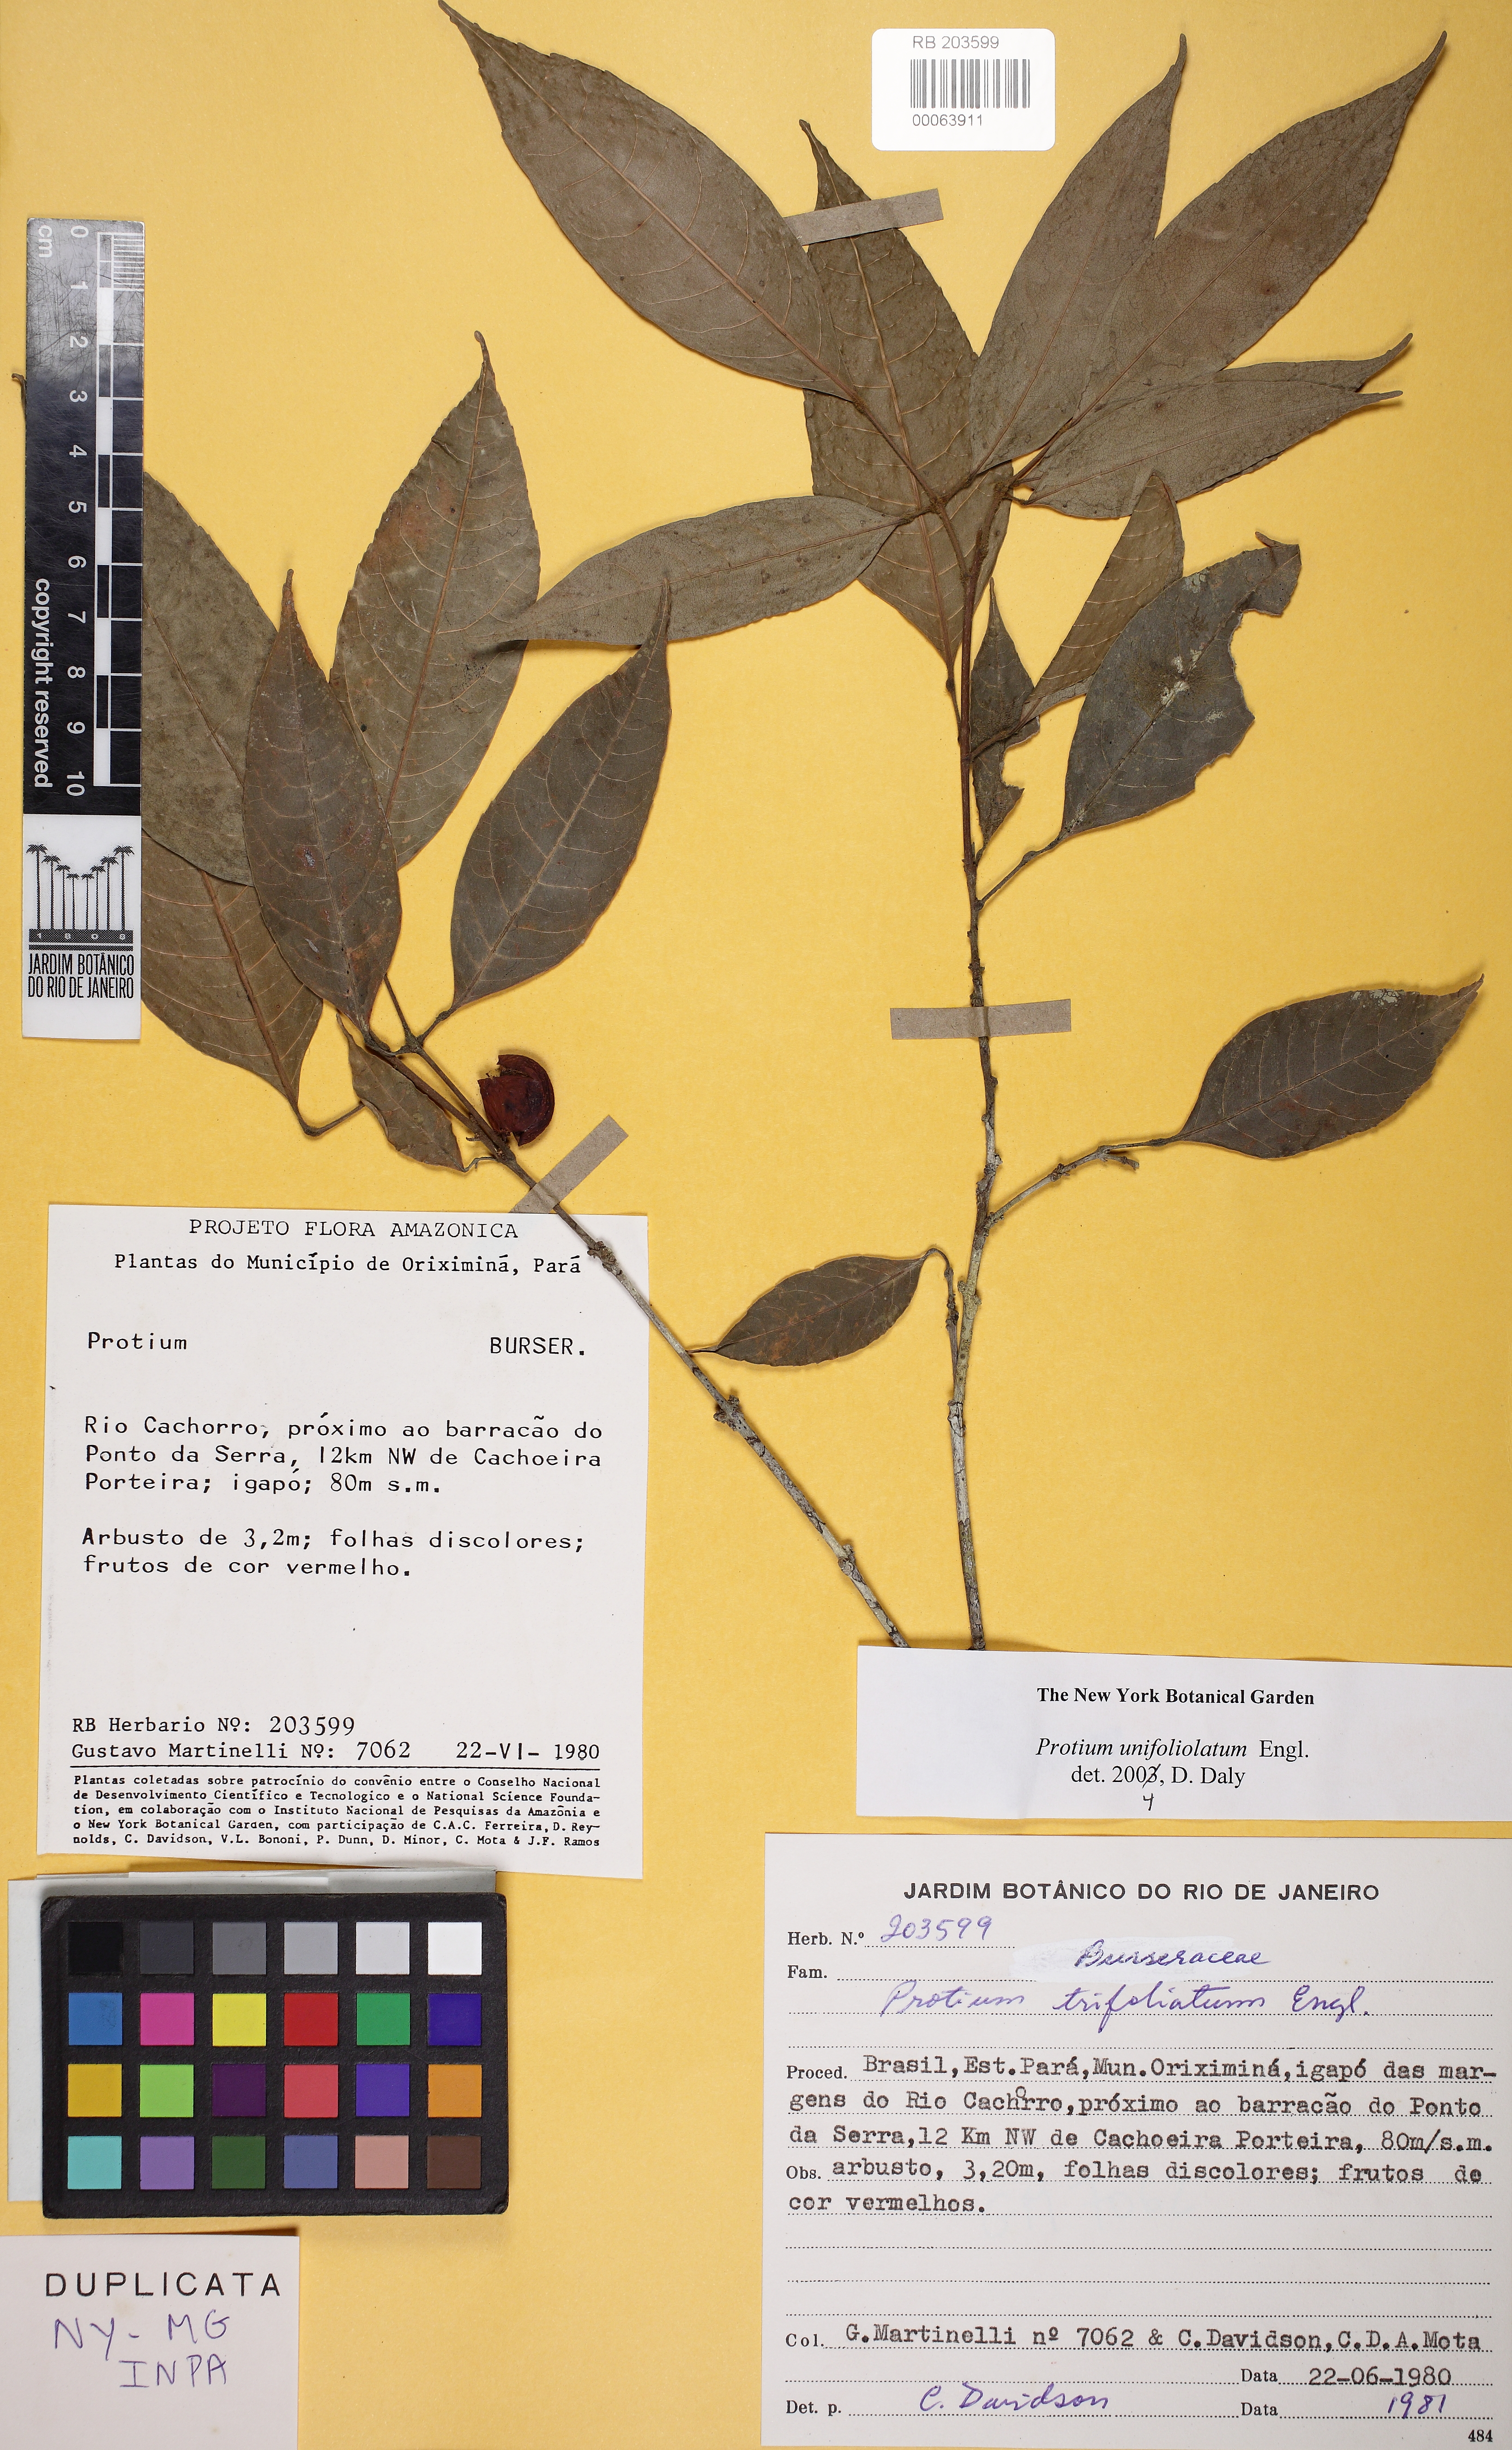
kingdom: Plantae
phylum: Tracheophyta
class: Magnoliopsida
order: Sapindales
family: Burseraceae
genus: Protium
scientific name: Protium unifoliolatum
